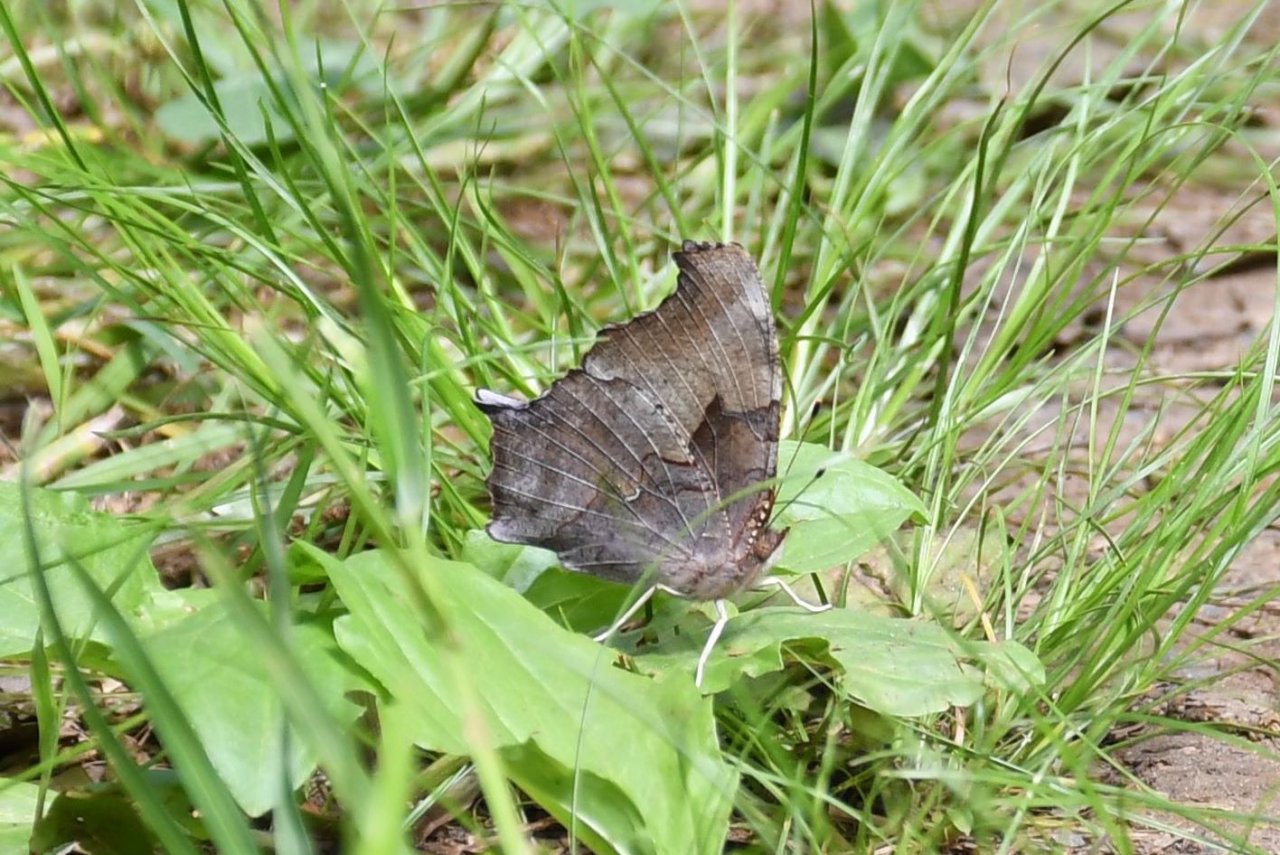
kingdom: Animalia
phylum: Arthropoda
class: Insecta
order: Lepidoptera
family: Nymphalidae
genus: Polygonia
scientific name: Polygonia interrogationis
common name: Question Mark
